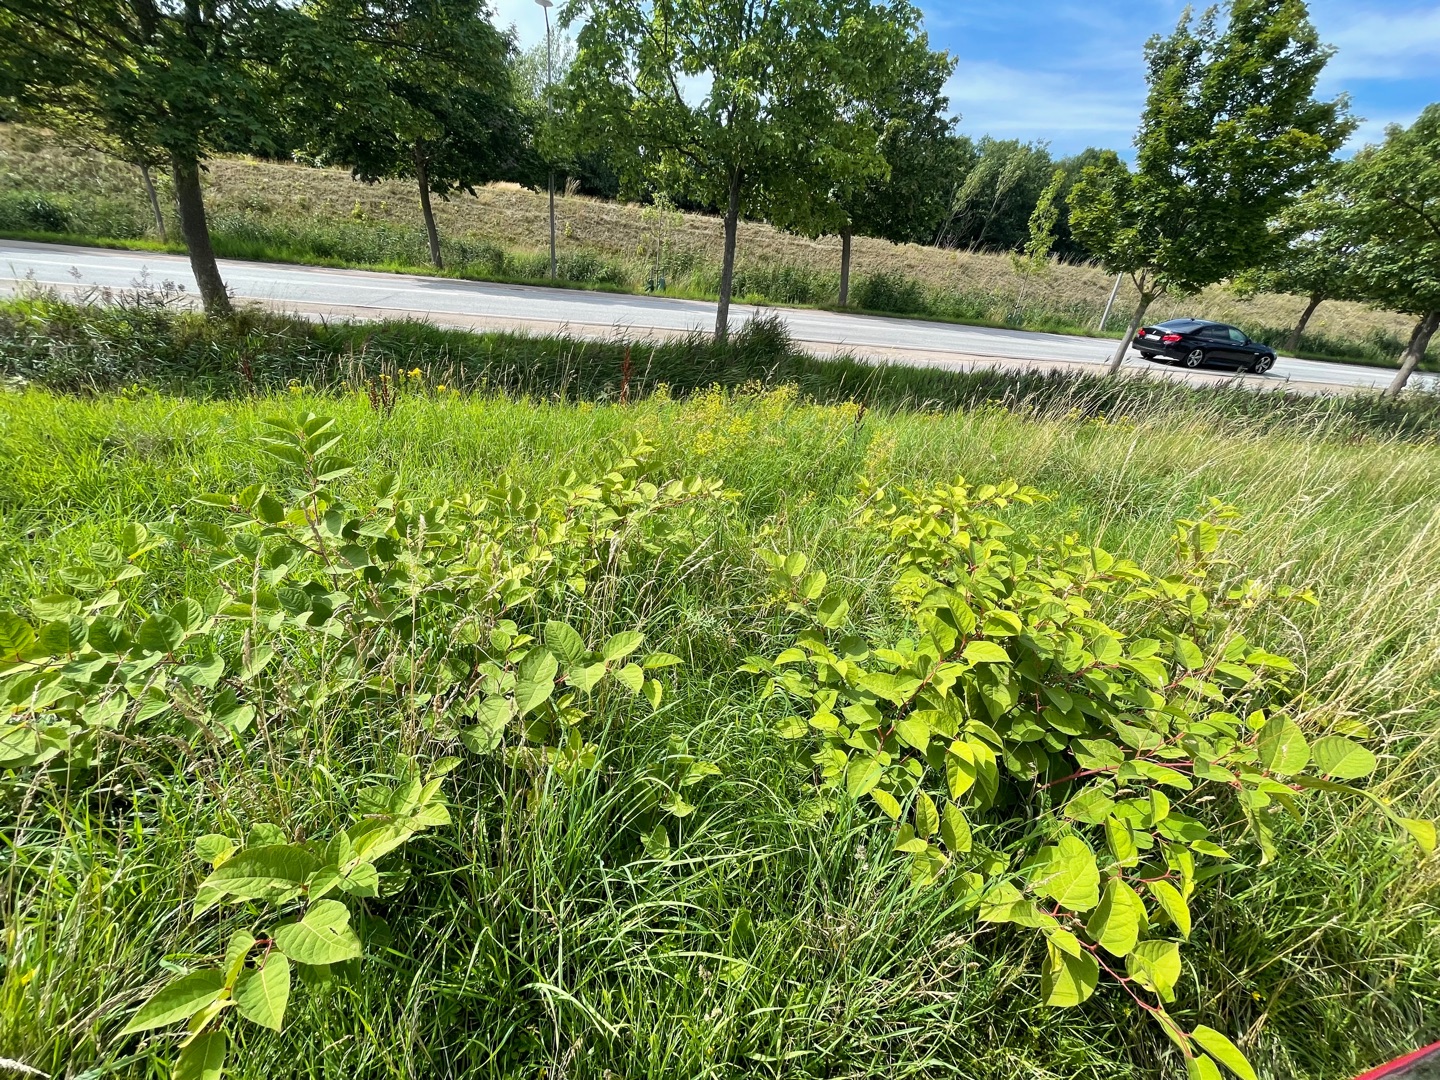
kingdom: Plantae
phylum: Tracheophyta
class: Magnoliopsida
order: Caryophyllales
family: Polygonaceae
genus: Reynoutria
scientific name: Reynoutria japonica
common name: Japan-pileurt
